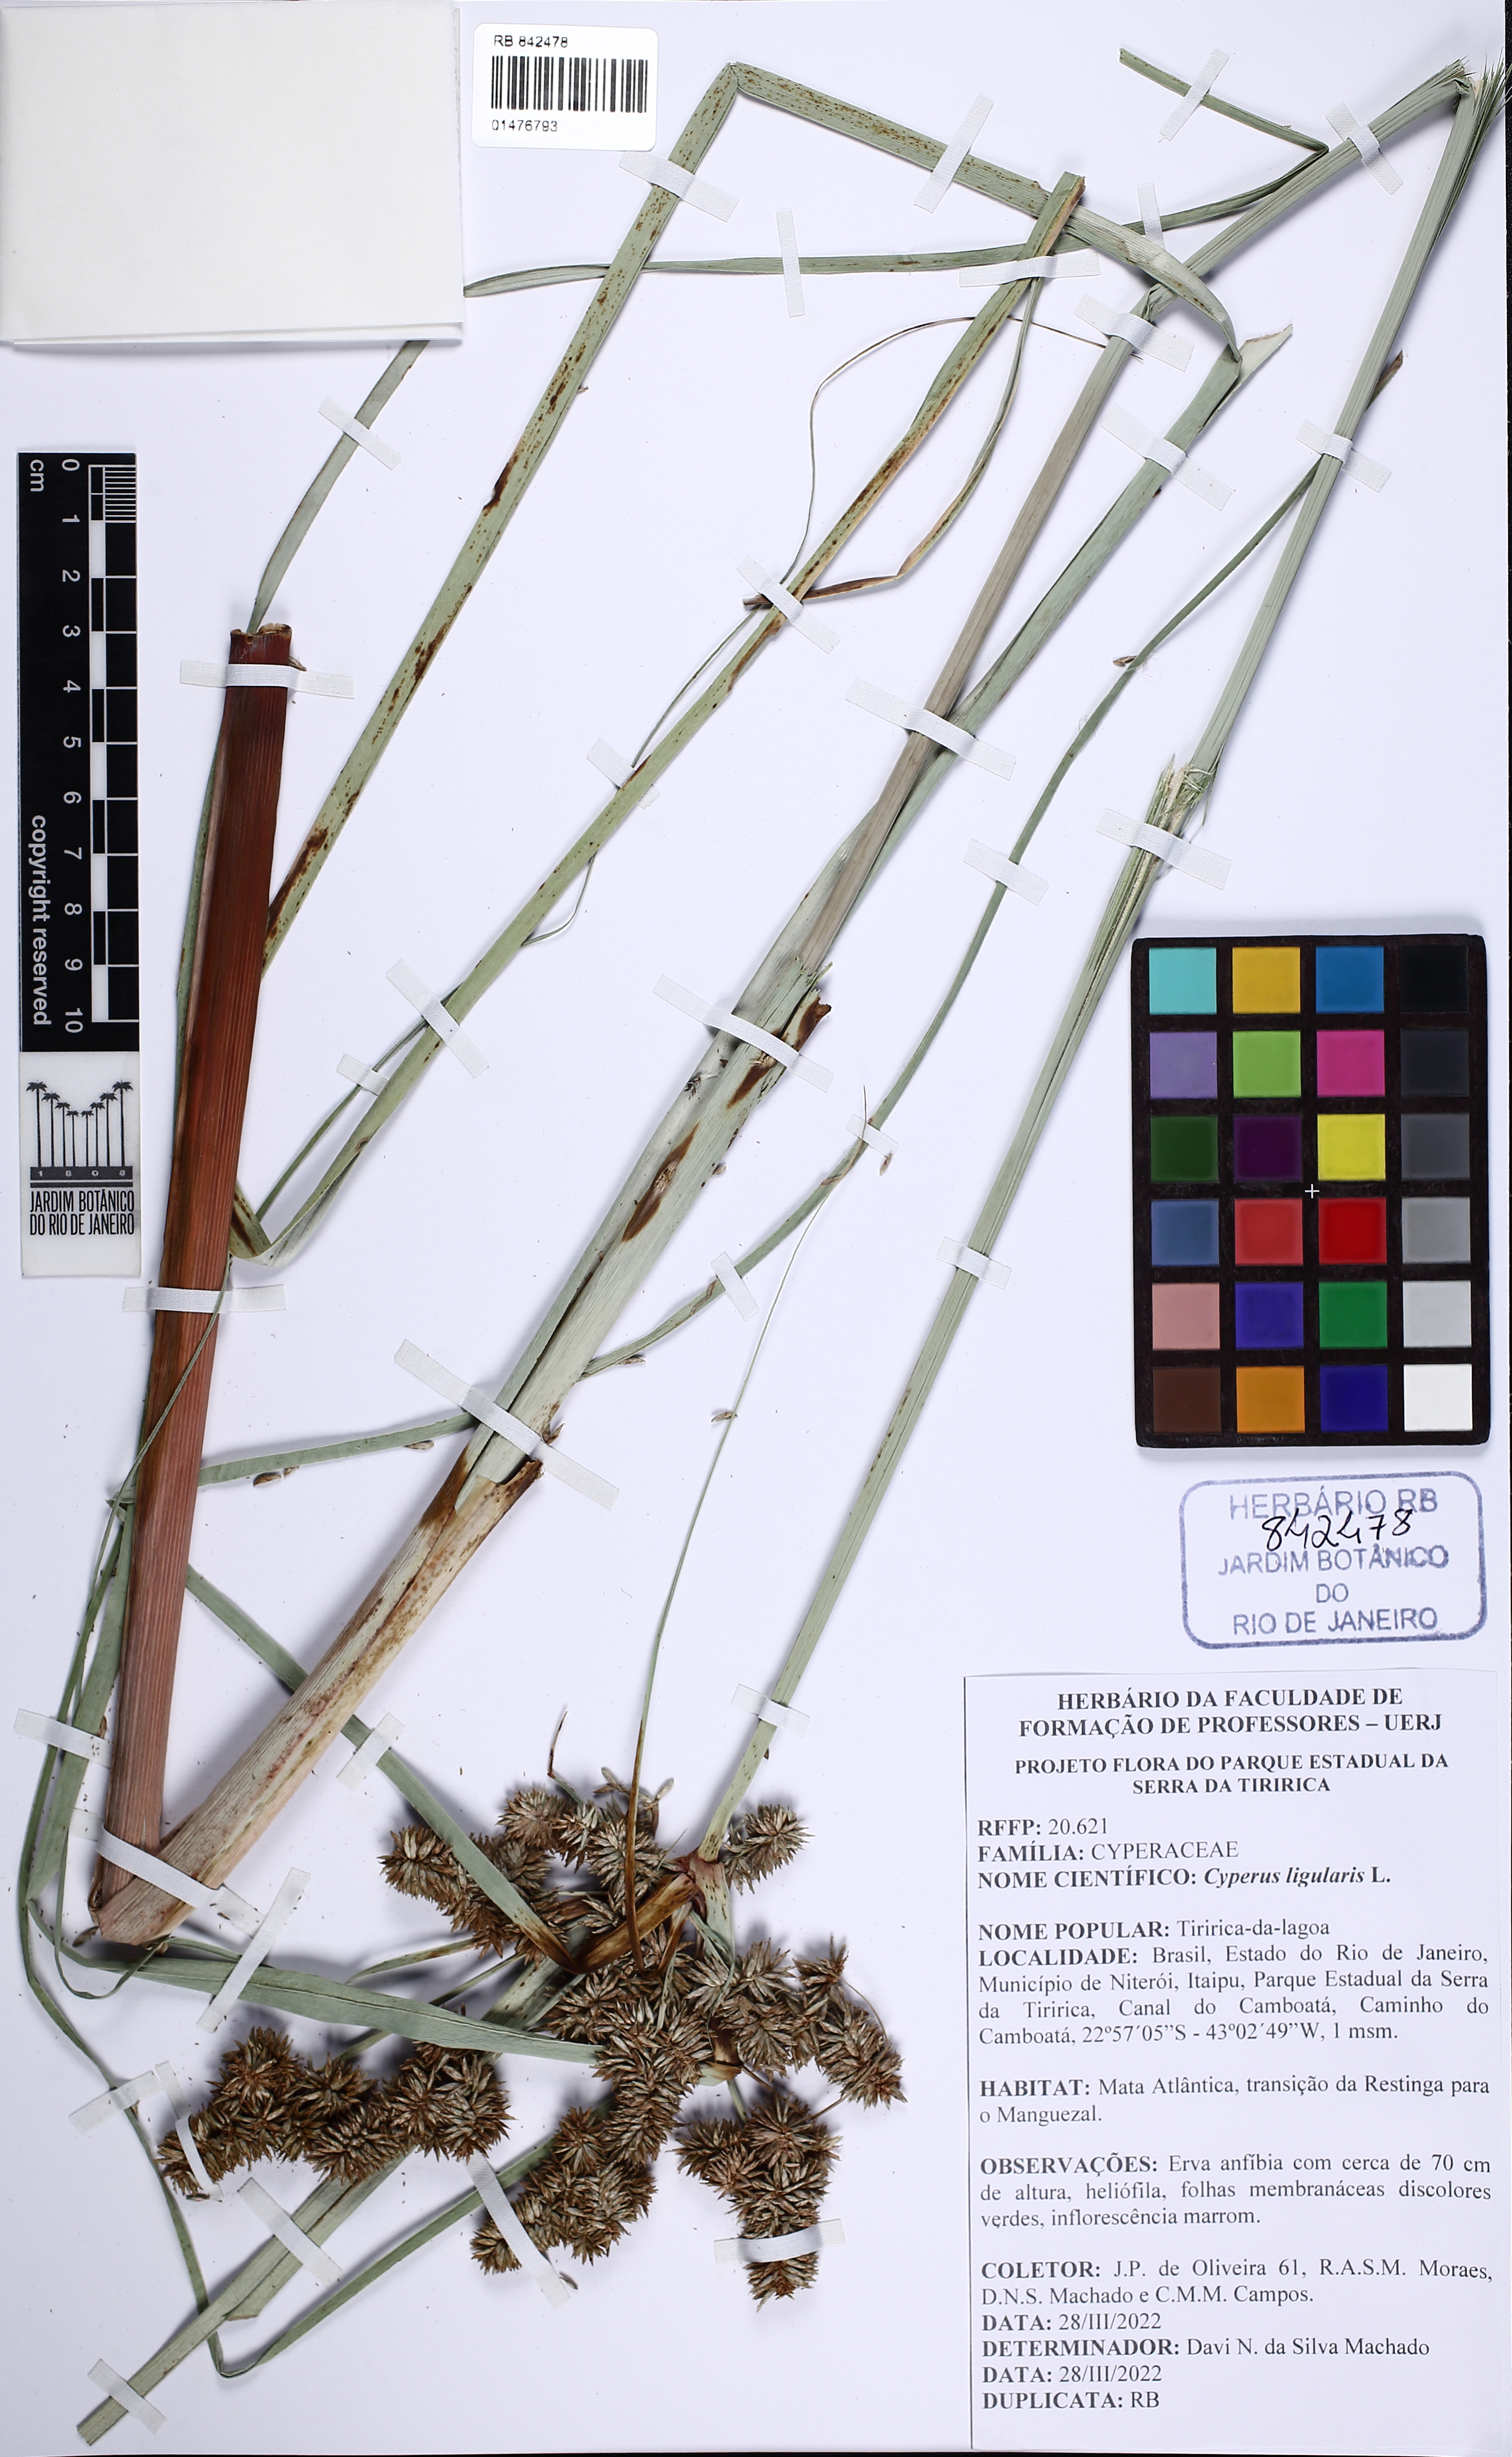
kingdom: Plantae
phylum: Tracheophyta
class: Liliopsida
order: Poales
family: Cyperaceae
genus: Cyperus
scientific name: Cyperus ligularis
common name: Swamp flat sedge
